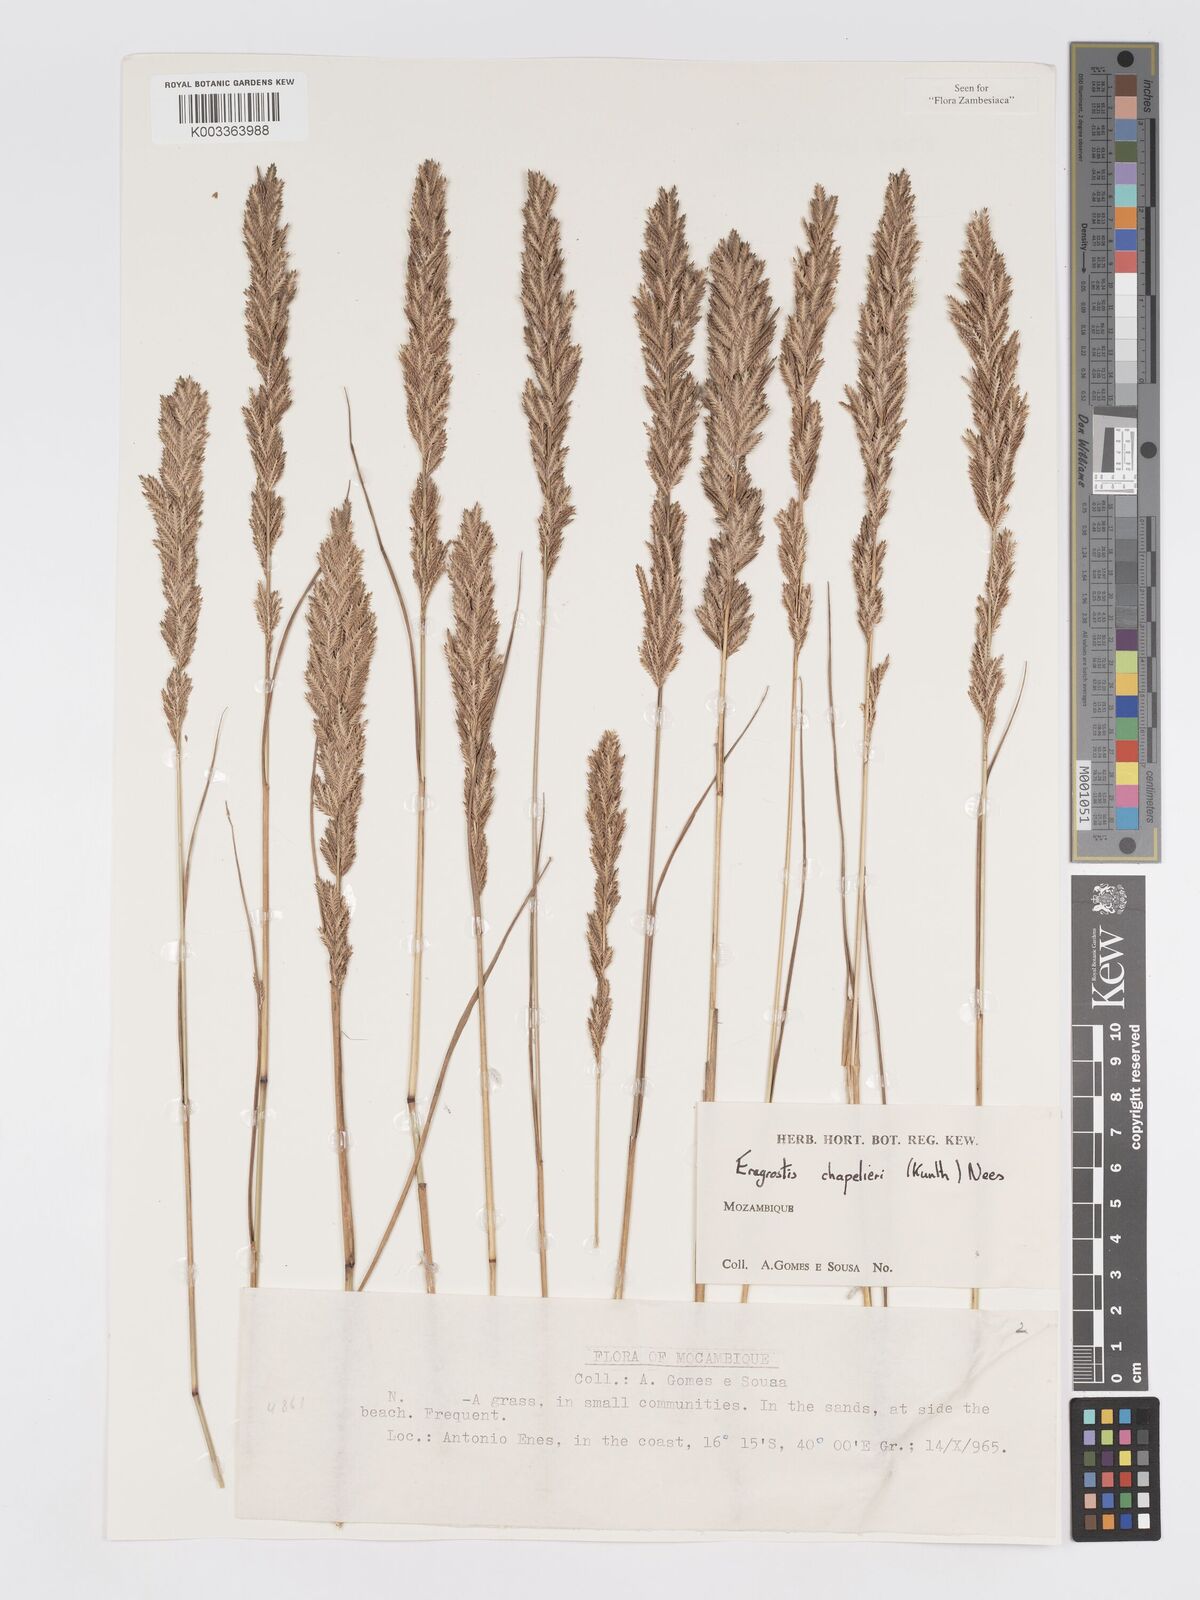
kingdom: Plantae
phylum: Tracheophyta
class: Liliopsida
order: Poales
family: Poaceae
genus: Eragrostis
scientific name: Eragrostis chapelieri
